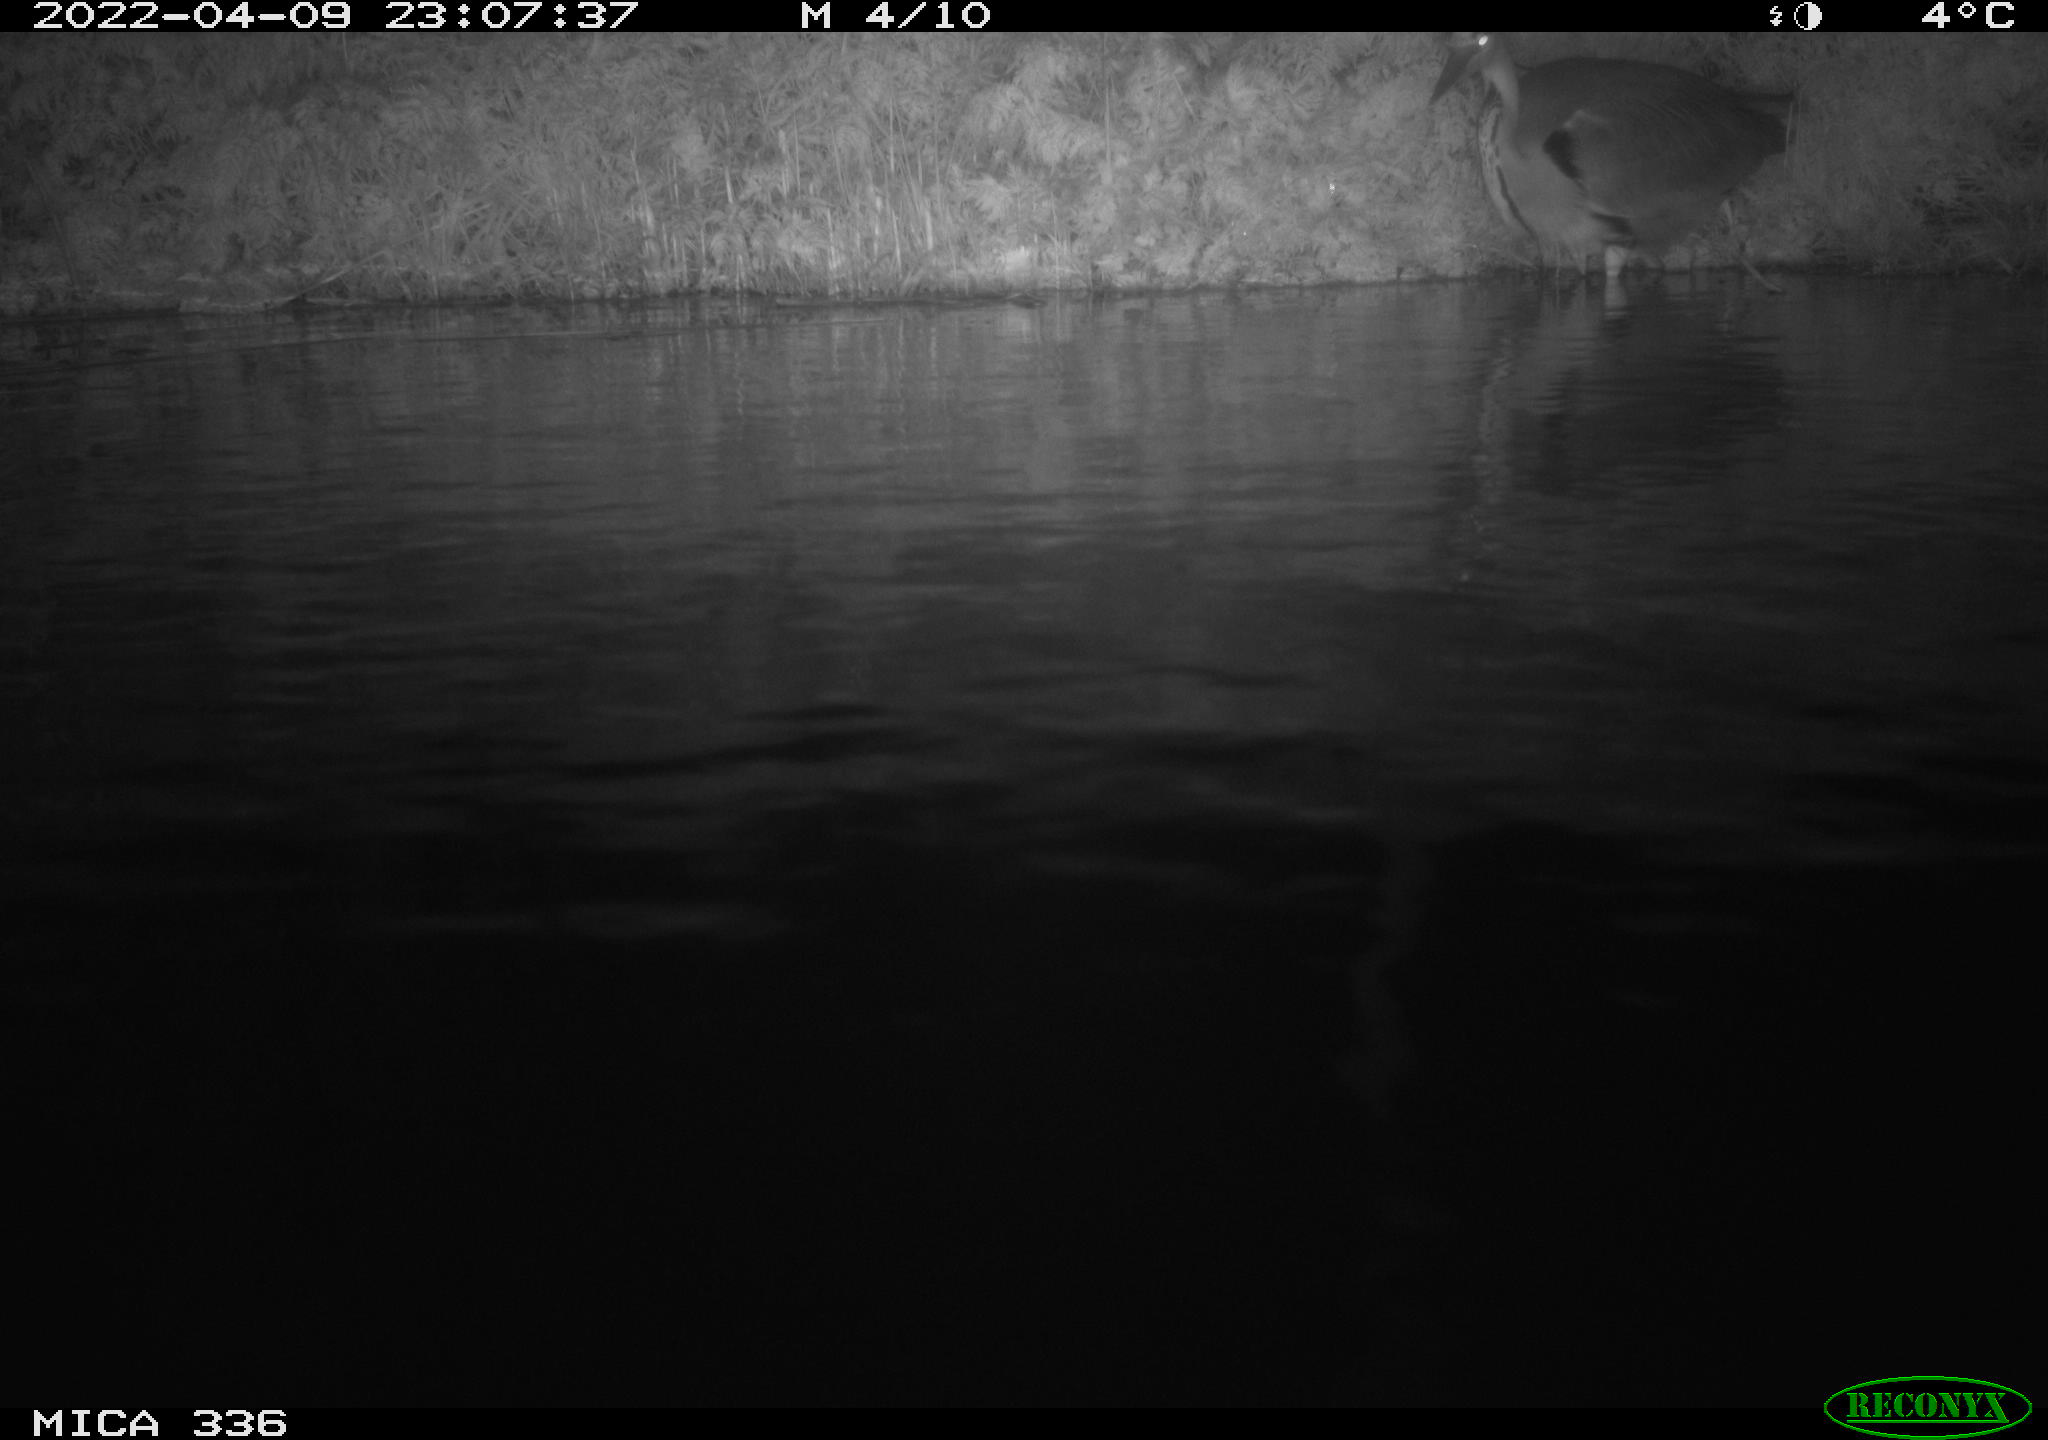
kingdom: Animalia
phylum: Chordata
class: Aves
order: Pelecaniformes
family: Ardeidae
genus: Ardea
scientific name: Ardea cinerea
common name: Grey heron
